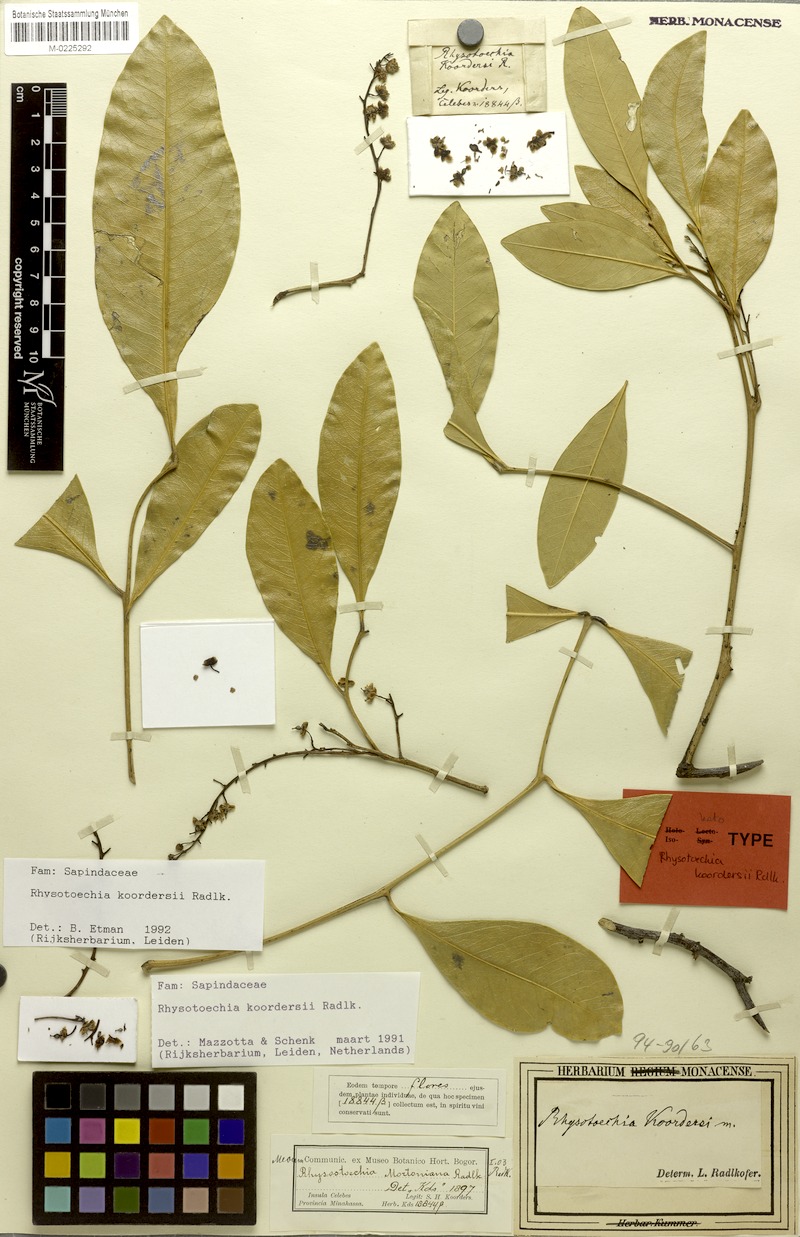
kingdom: Plantae
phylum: Tracheophyta
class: Magnoliopsida
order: Sapindales
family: Sapindaceae
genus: Rhysotoechia
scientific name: Rhysotoechia koordersii
